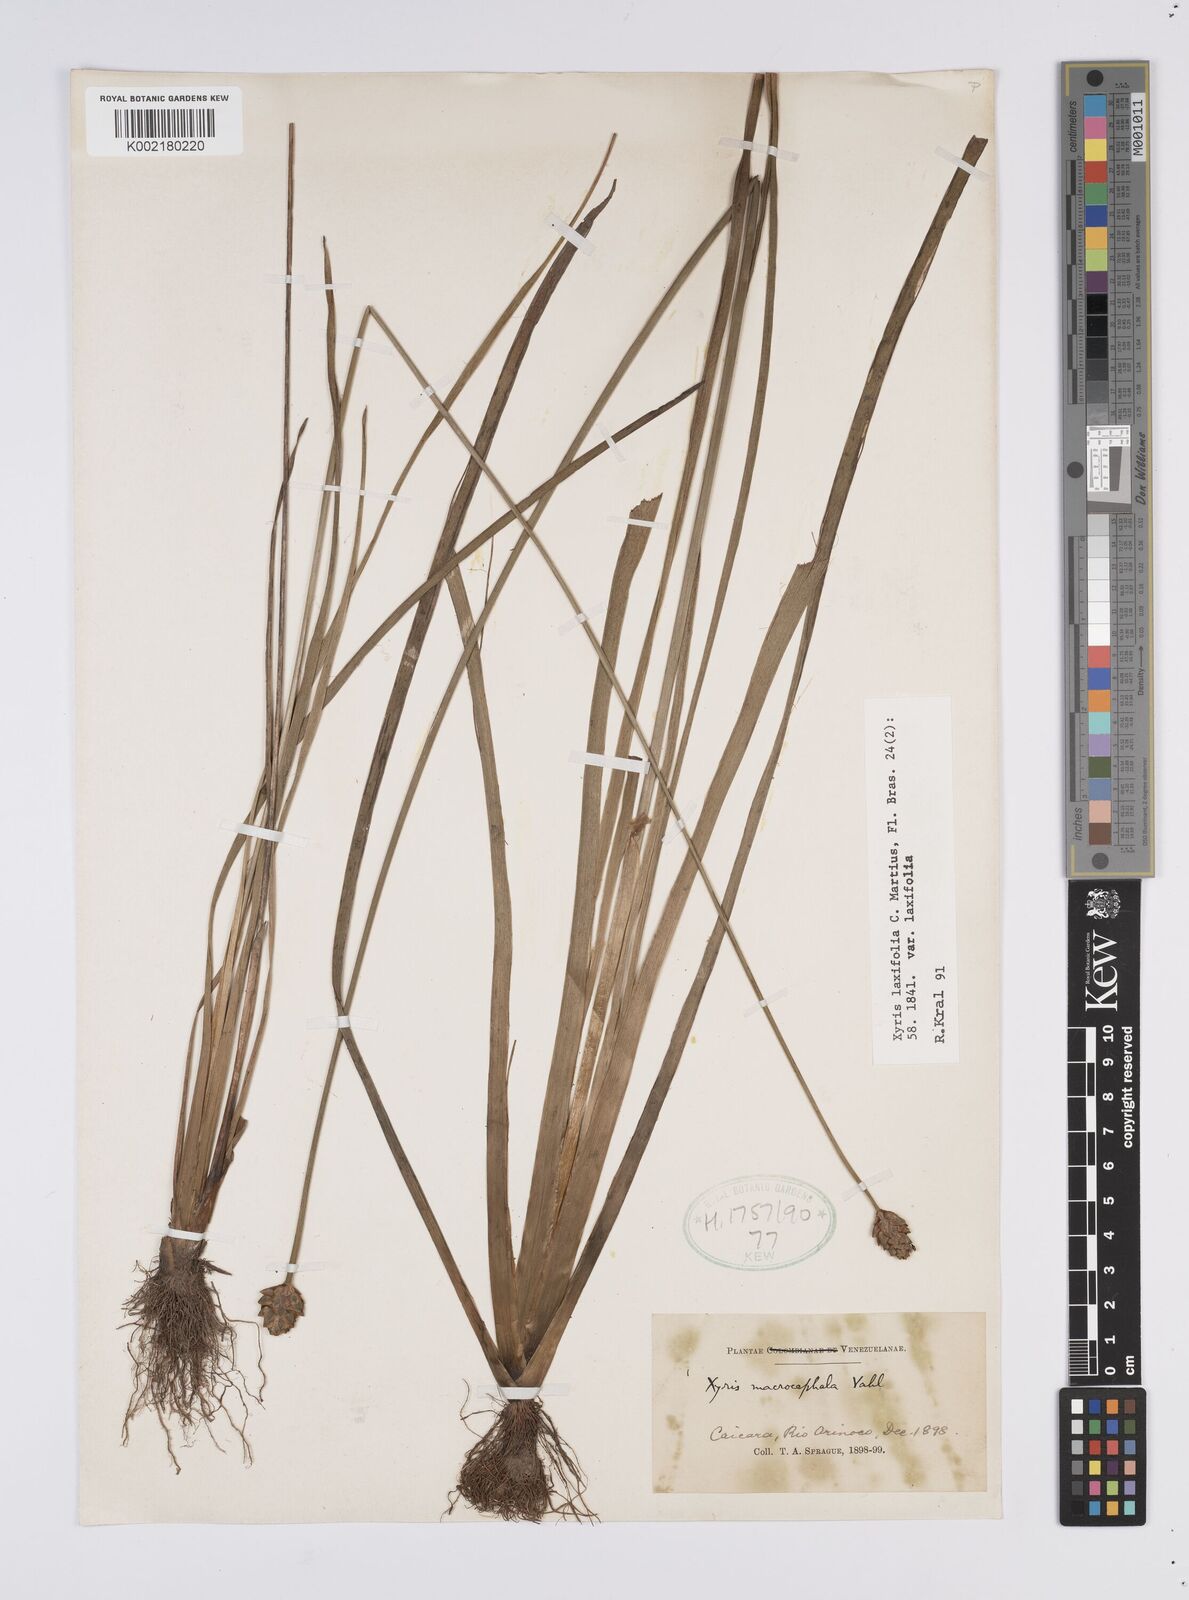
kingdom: Plantae
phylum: Tracheophyta
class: Liliopsida
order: Poales
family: Xyridaceae
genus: Xyris
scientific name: Xyris laxiflora
